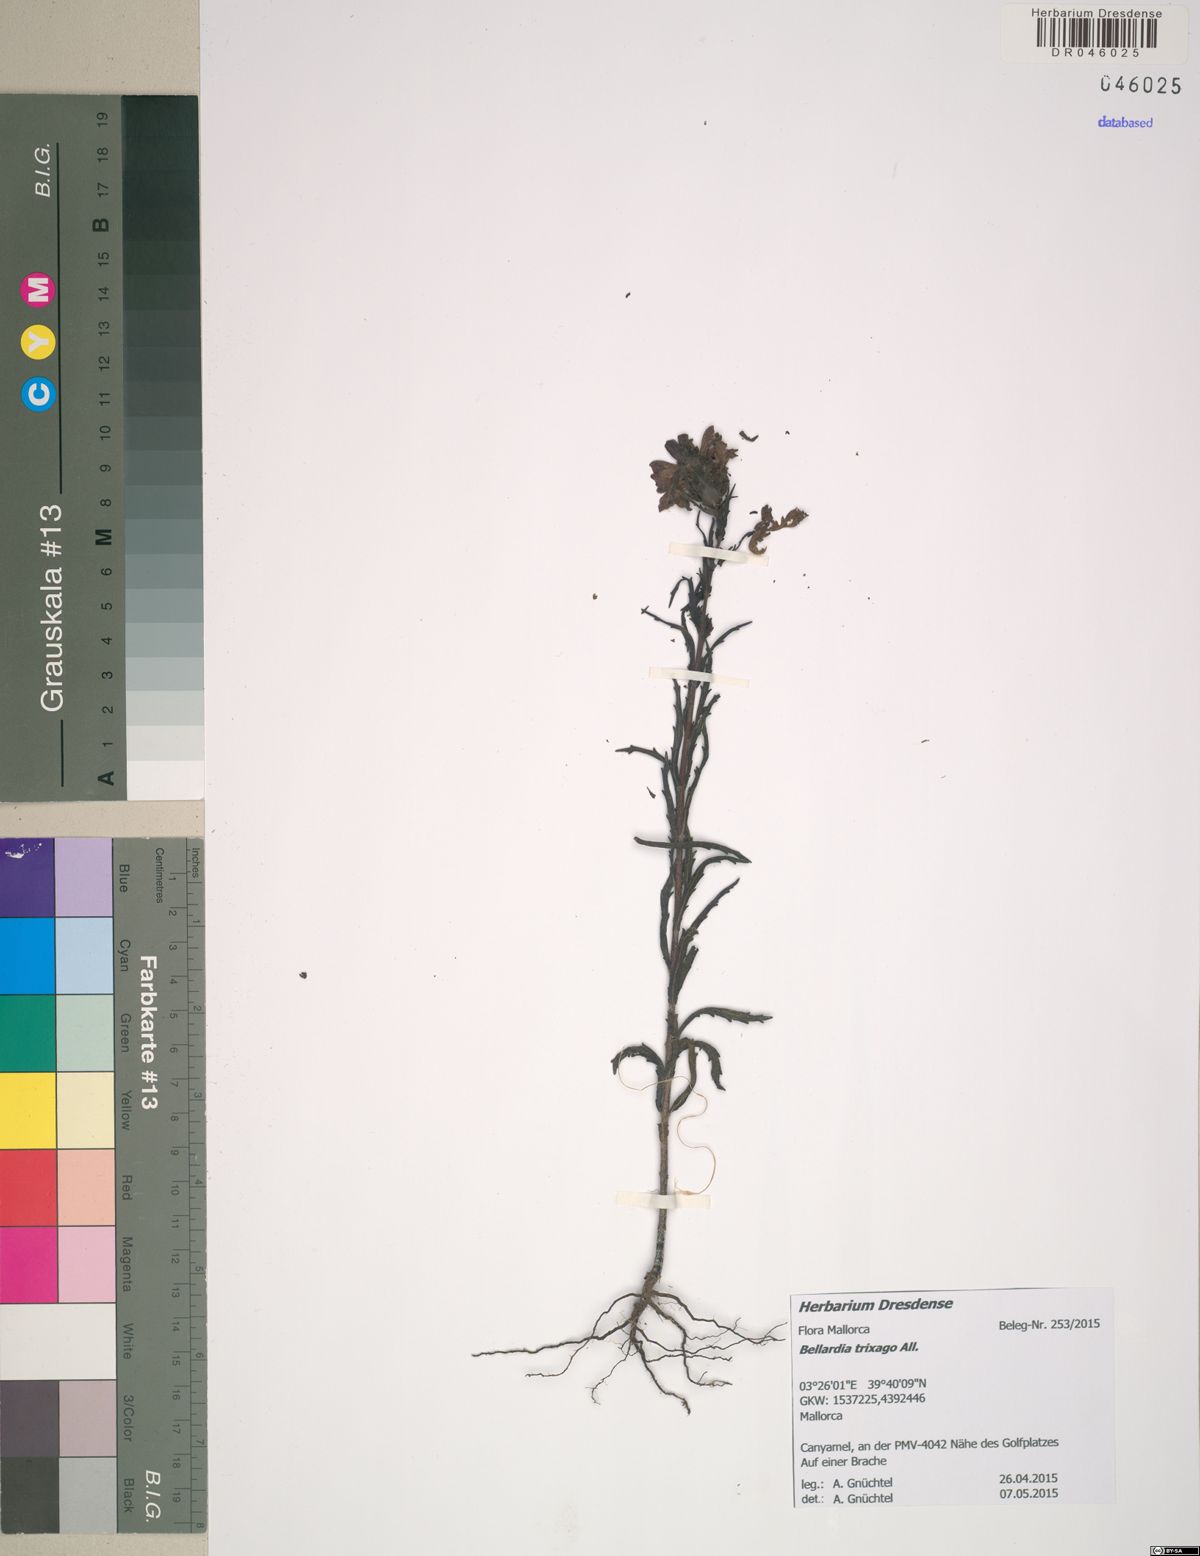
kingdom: Plantae
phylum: Tracheophyta
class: Magnoliopsida
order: Lamiales
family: Orobanchaceae
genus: Bellardia
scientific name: Bellardia trixago
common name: Mediterranean lineseed
